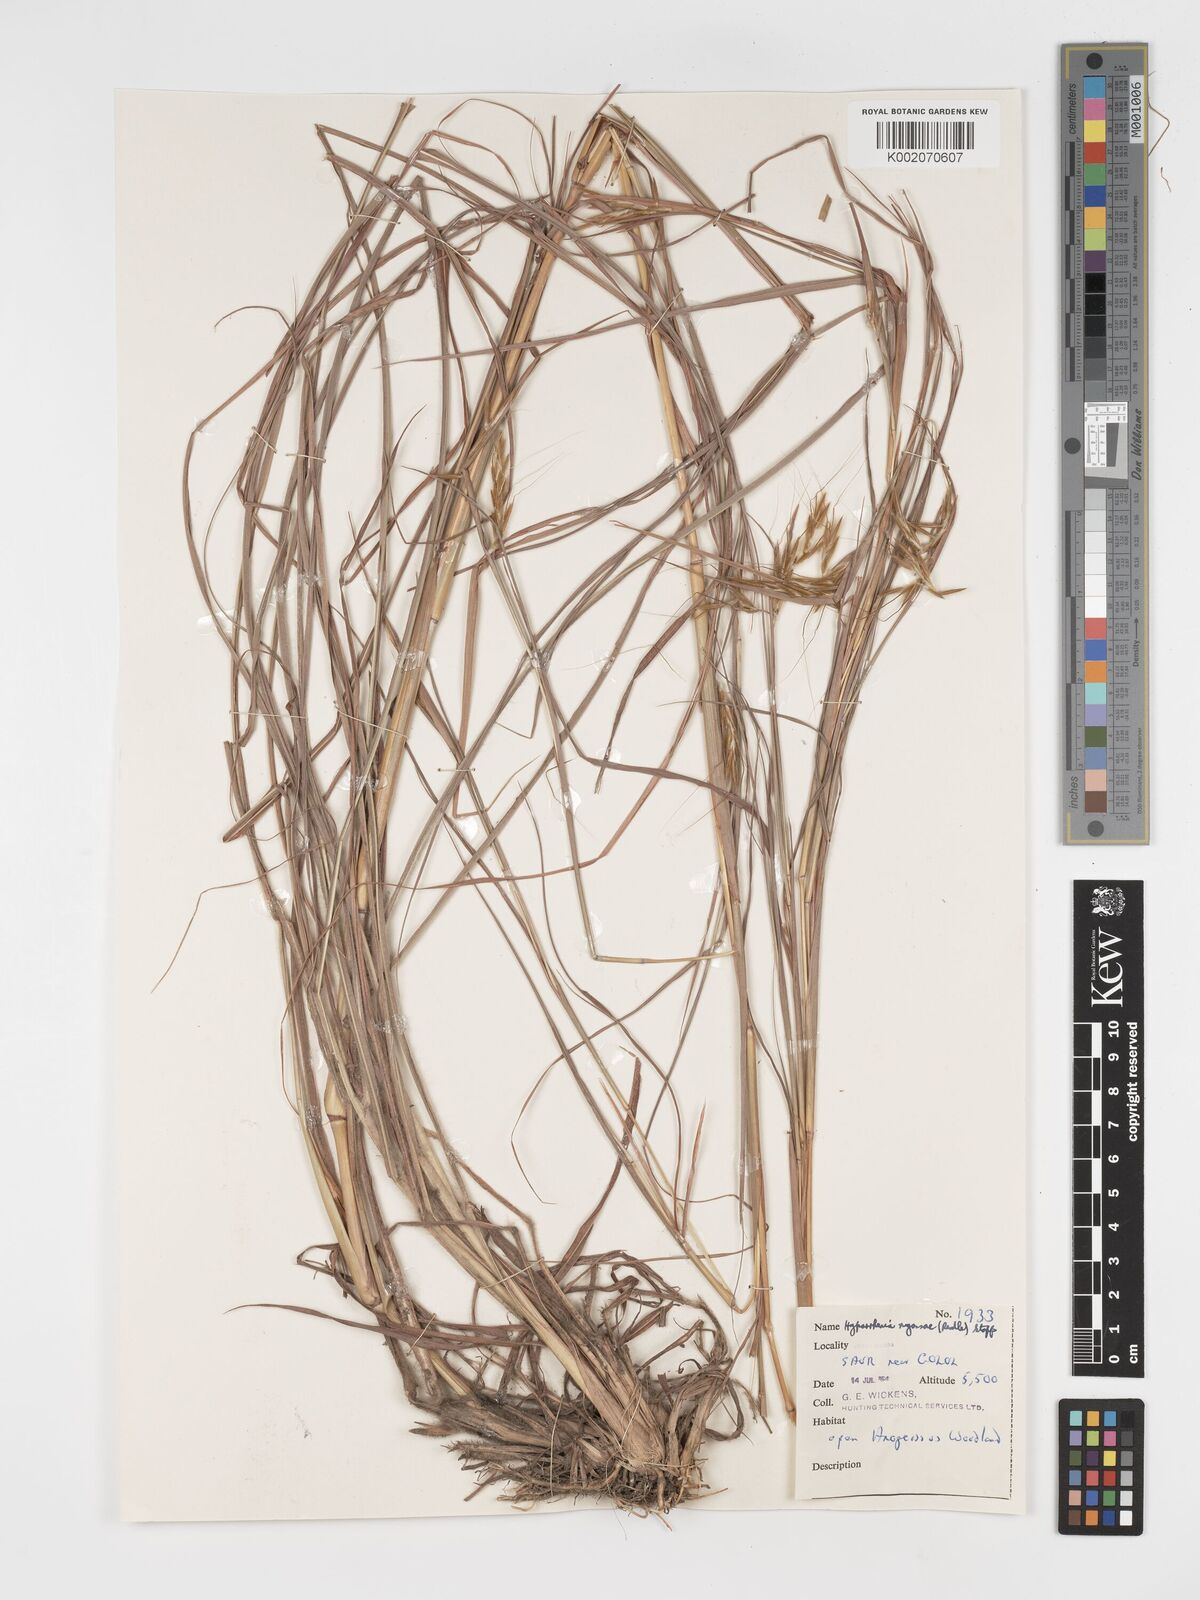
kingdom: Plantae
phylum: Tracheophyta
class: Liliopsida
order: Poales
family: Poaceae
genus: Hyparrhenia
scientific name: Hyparrhenia nyassae
